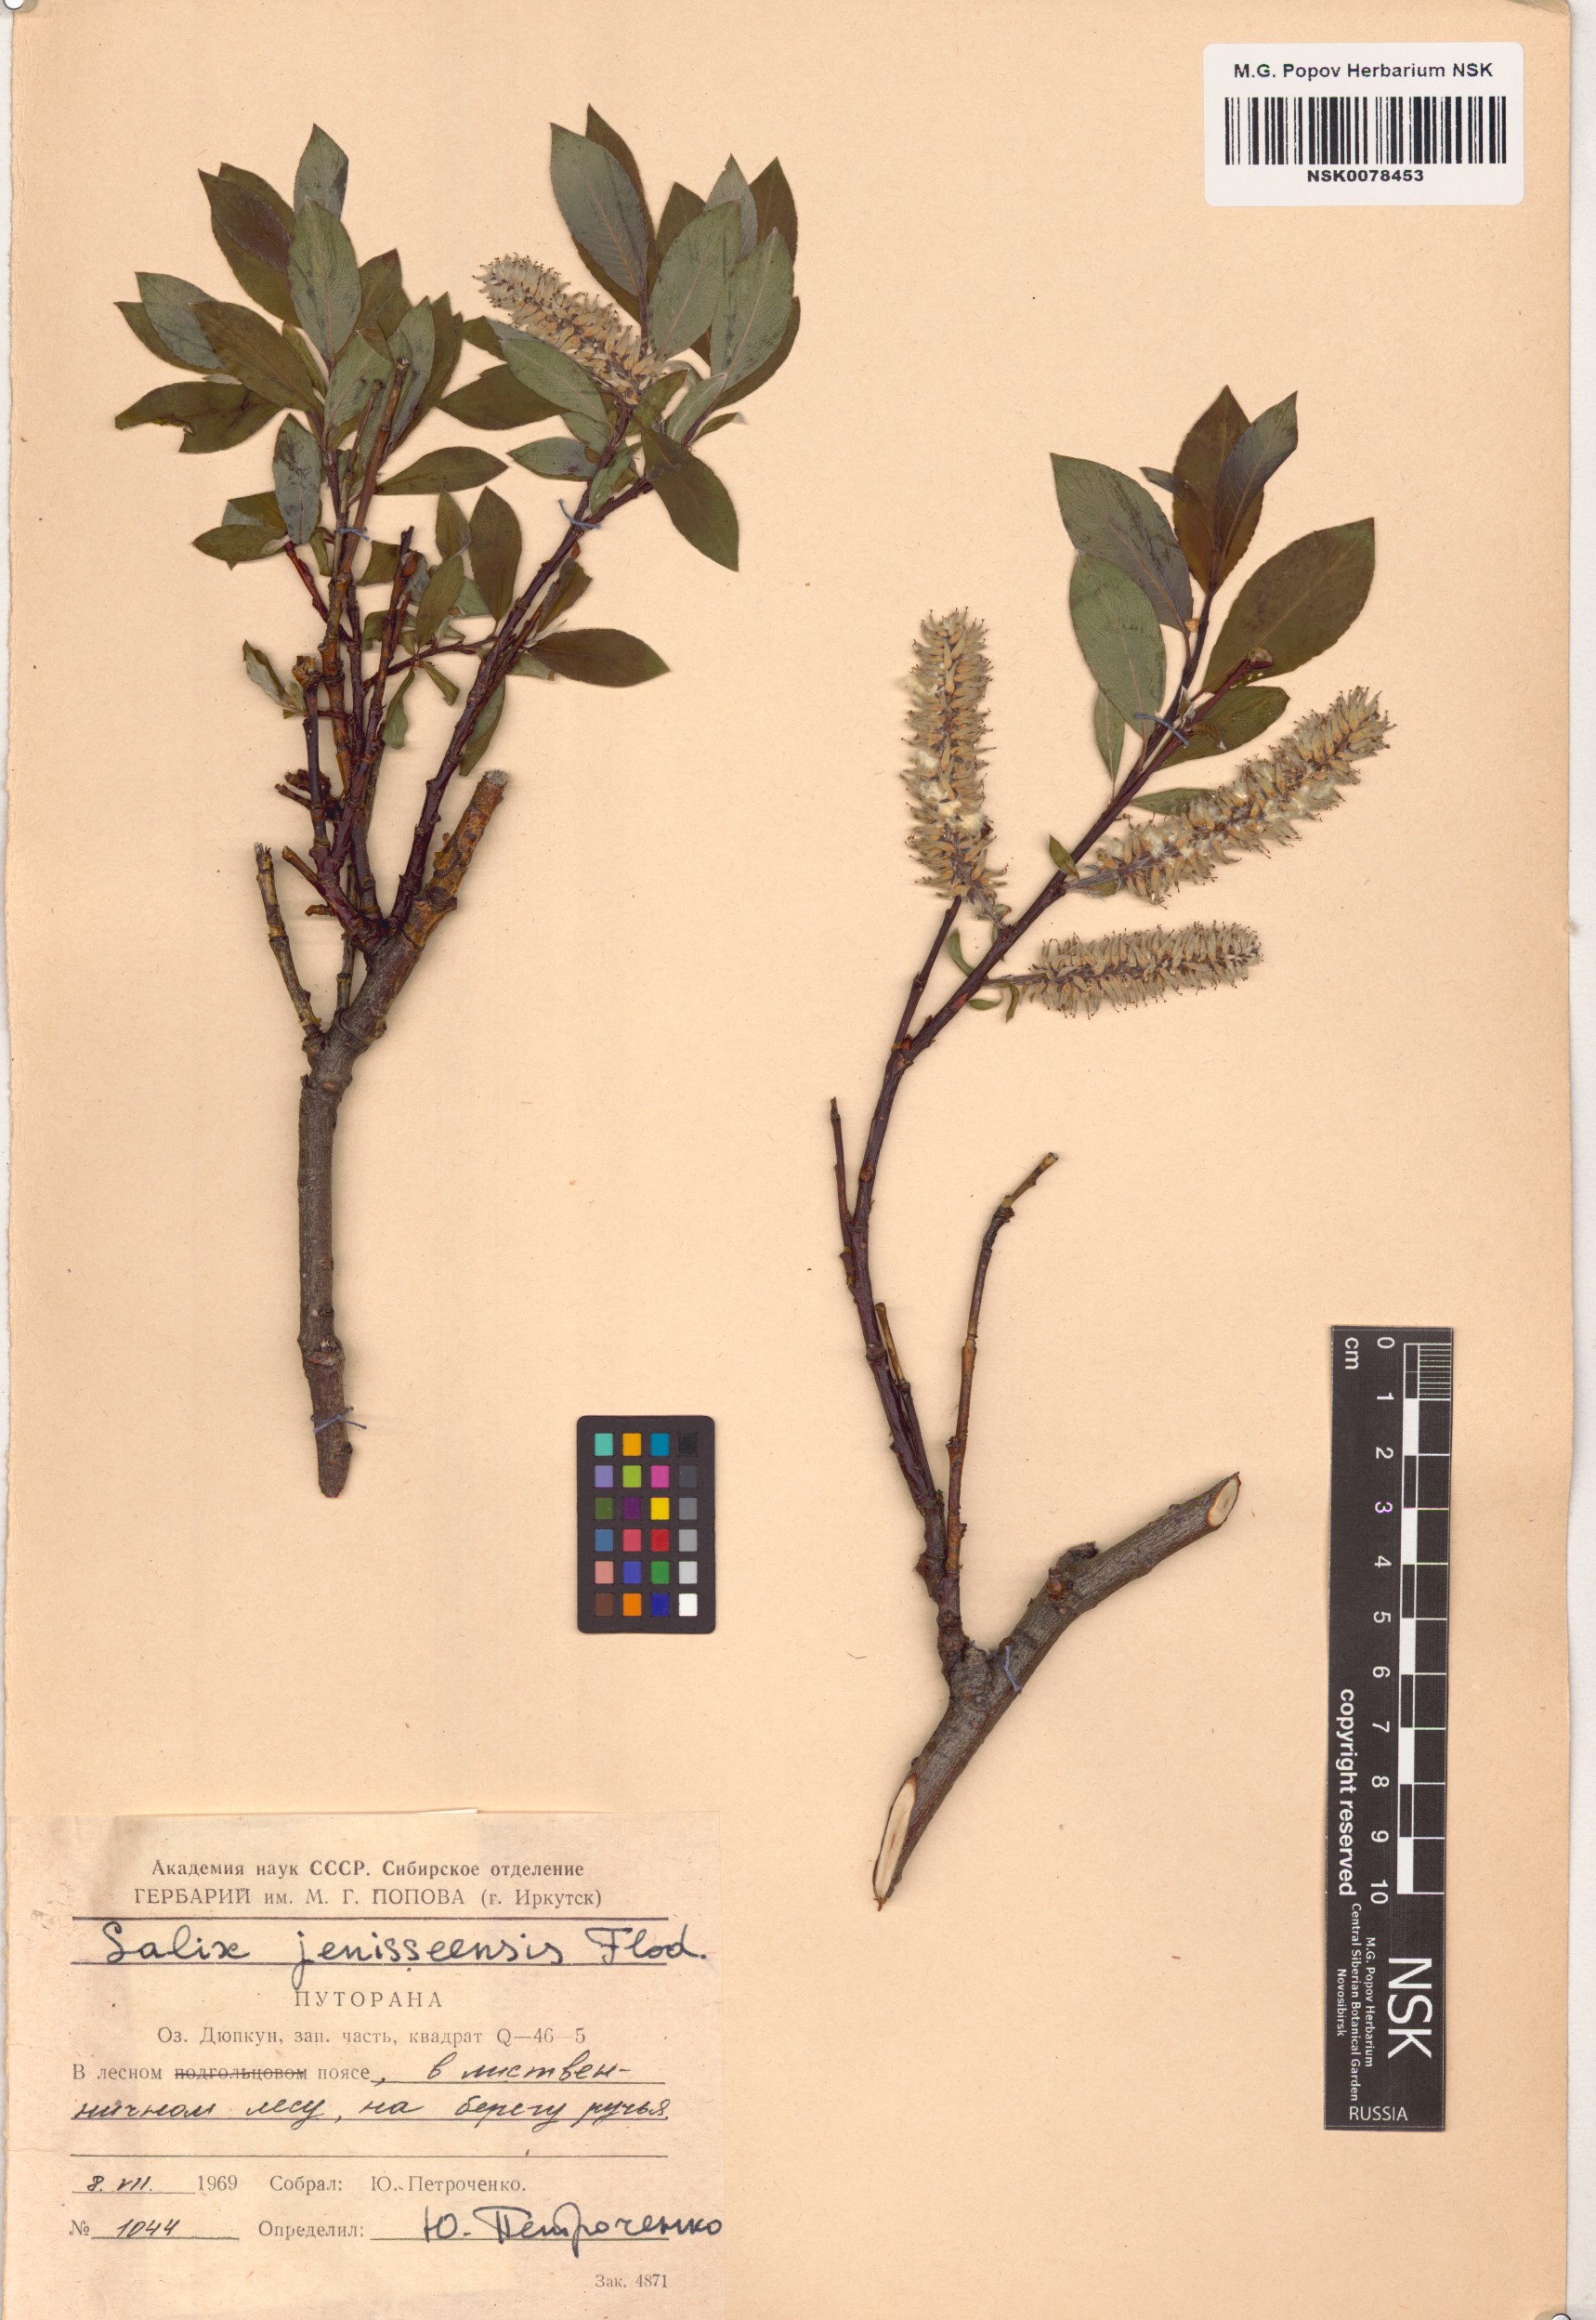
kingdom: Plantae
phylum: Tracheophyta
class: Magnoliopsida
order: Malpighiales
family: Salicaceae
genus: Salix
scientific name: Salix jenisseensis
